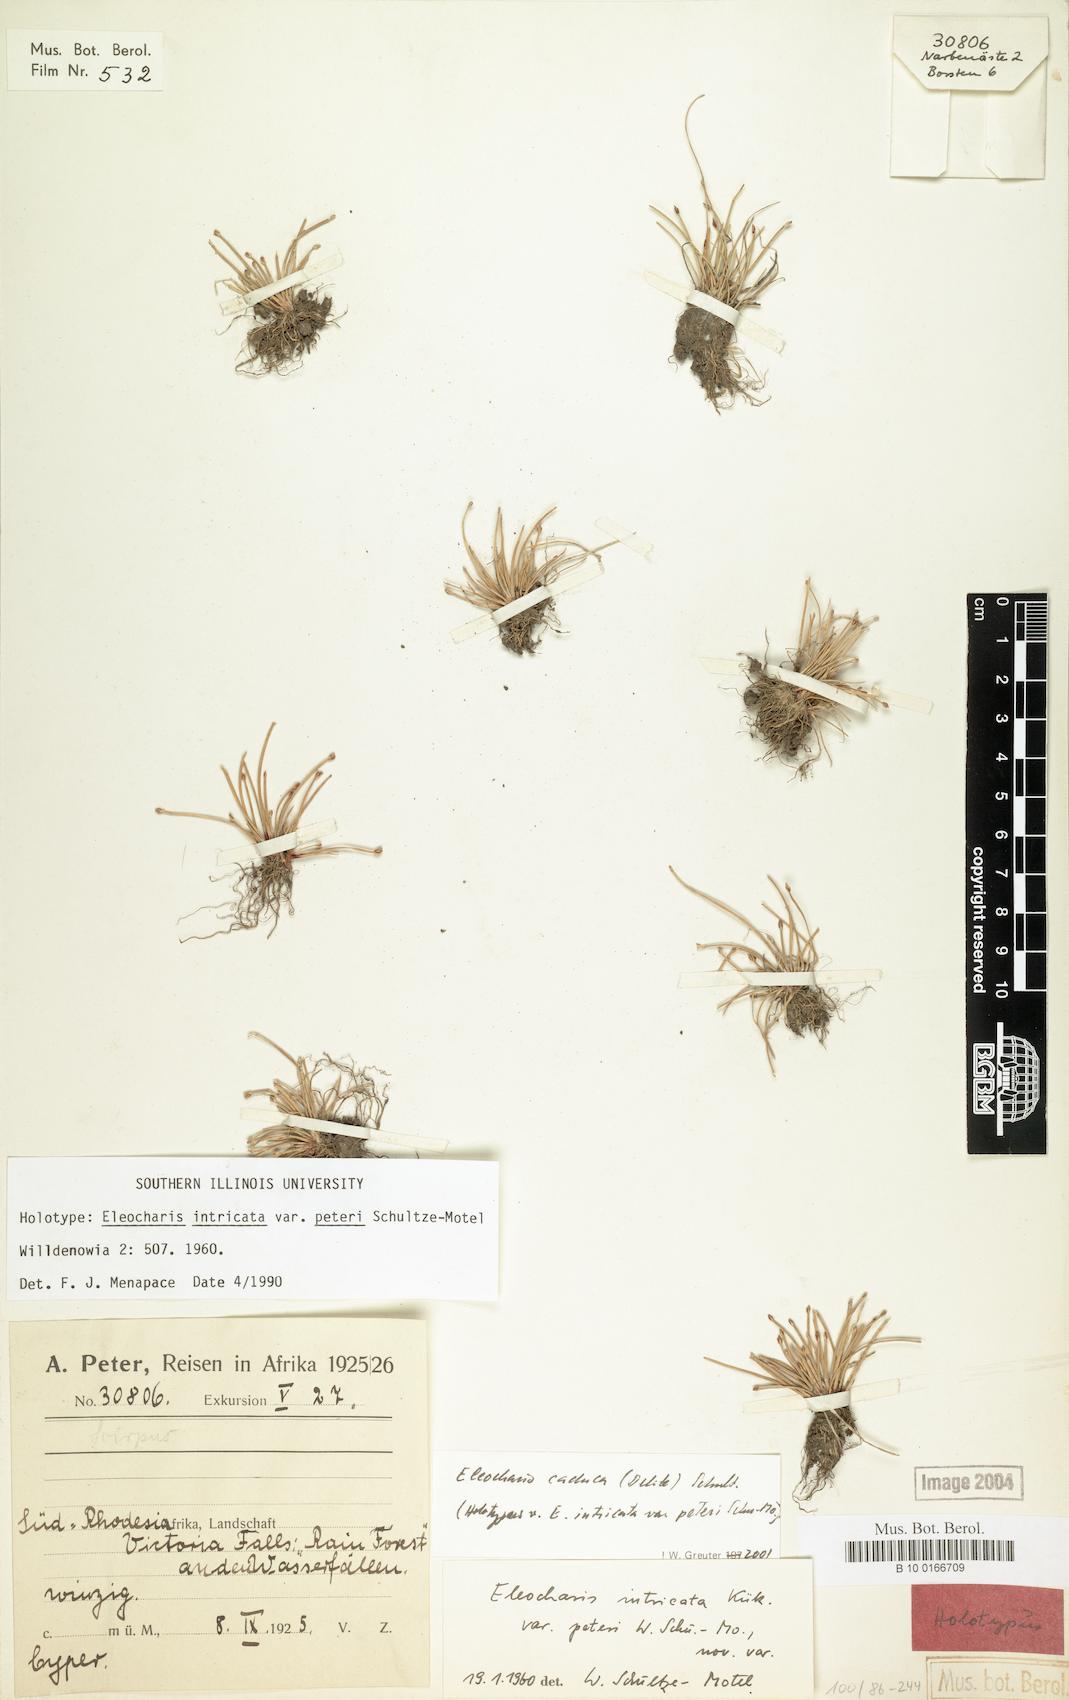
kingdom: Plantae
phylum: Tracheophyta
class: Liliopsida
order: Poales
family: Cyperaceae
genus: Eleocharis
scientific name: Eleocharis caduca
